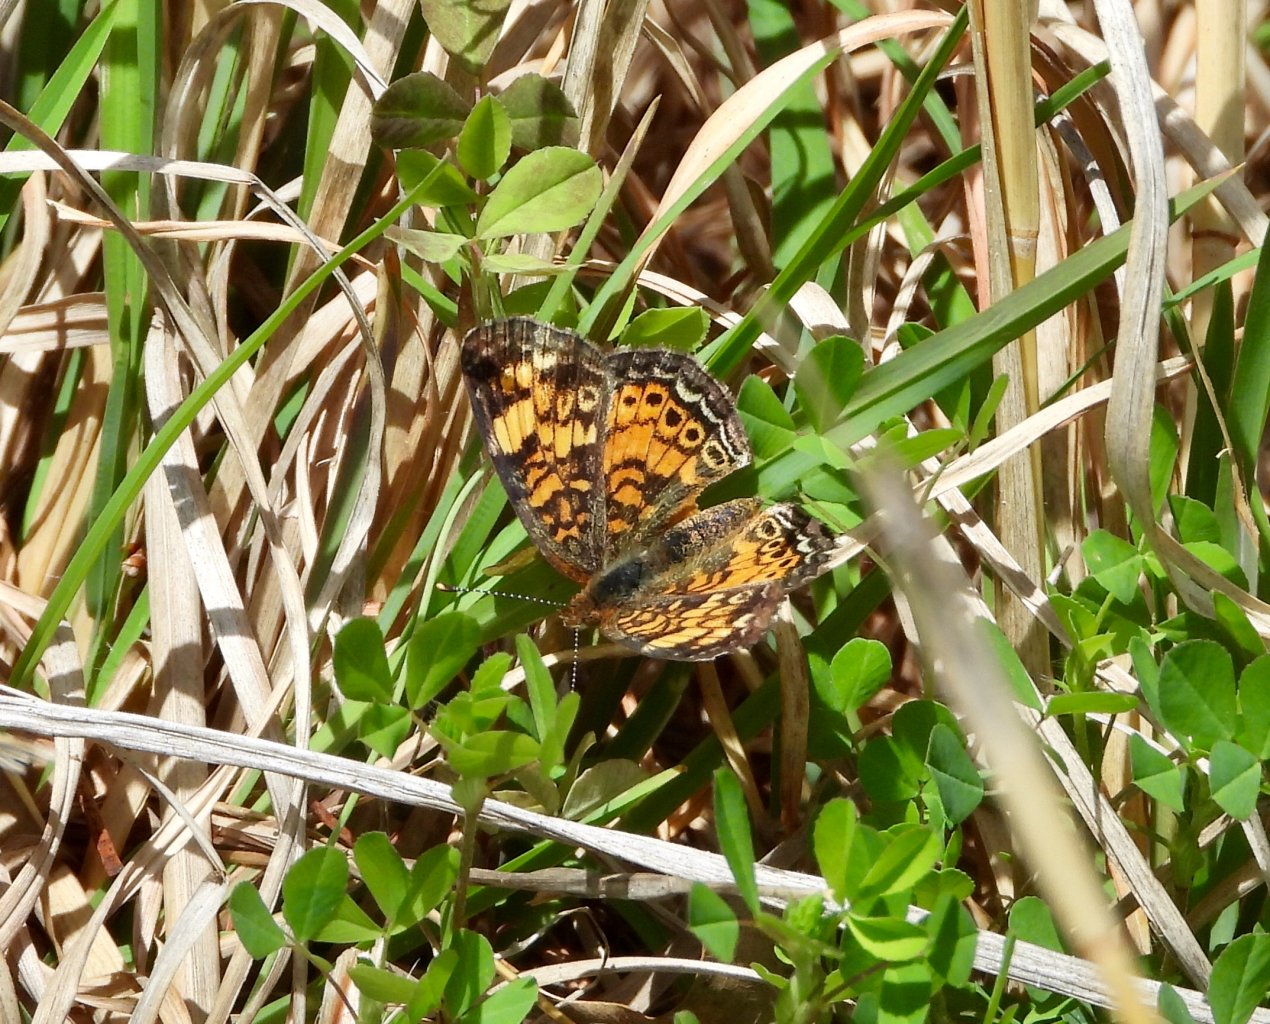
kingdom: Animalia
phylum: Arthropoda
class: Insecta
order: Lepidoptera
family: Nymphalidae
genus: Phyciodes
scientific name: Phyciodes tharos
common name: Pearl Crescent
